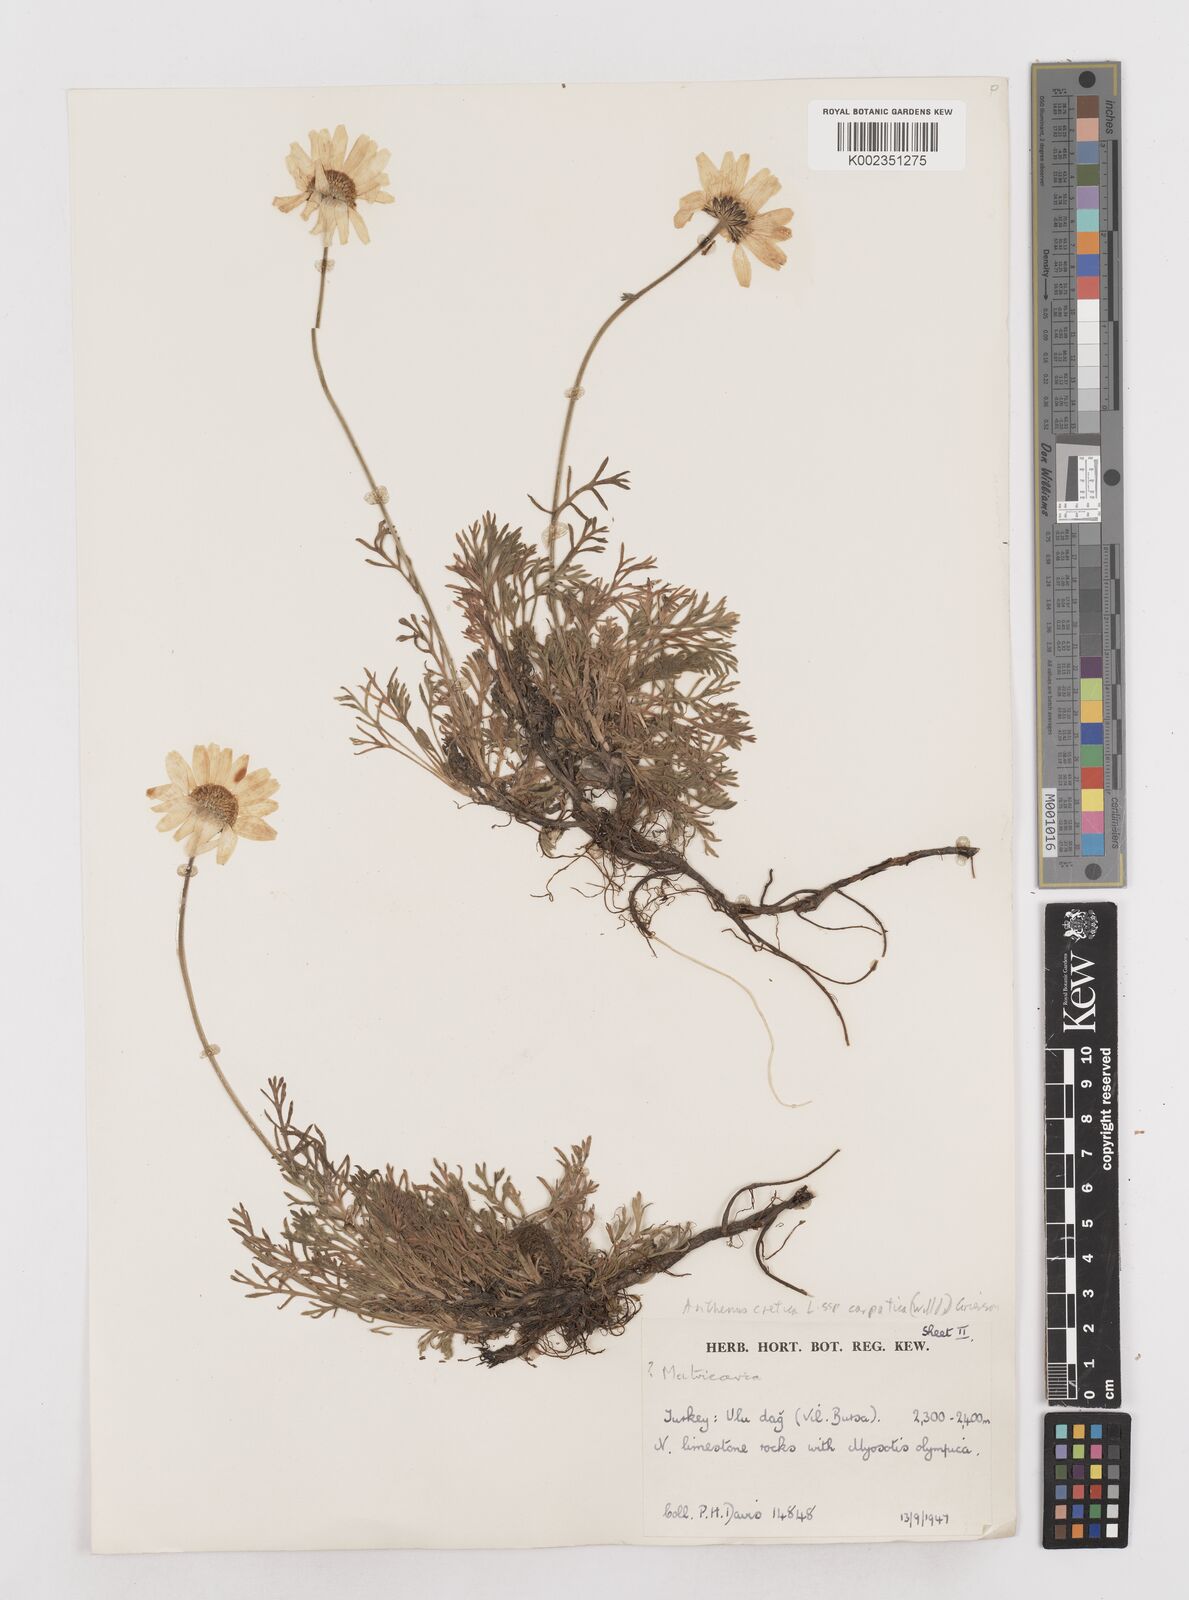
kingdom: Plantae
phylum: Tracheophyta
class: Magnoliopsida
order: Asterales
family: Asteraceae
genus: Anthemis
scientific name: Anthemis cretica
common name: Mountain dog-daisy
